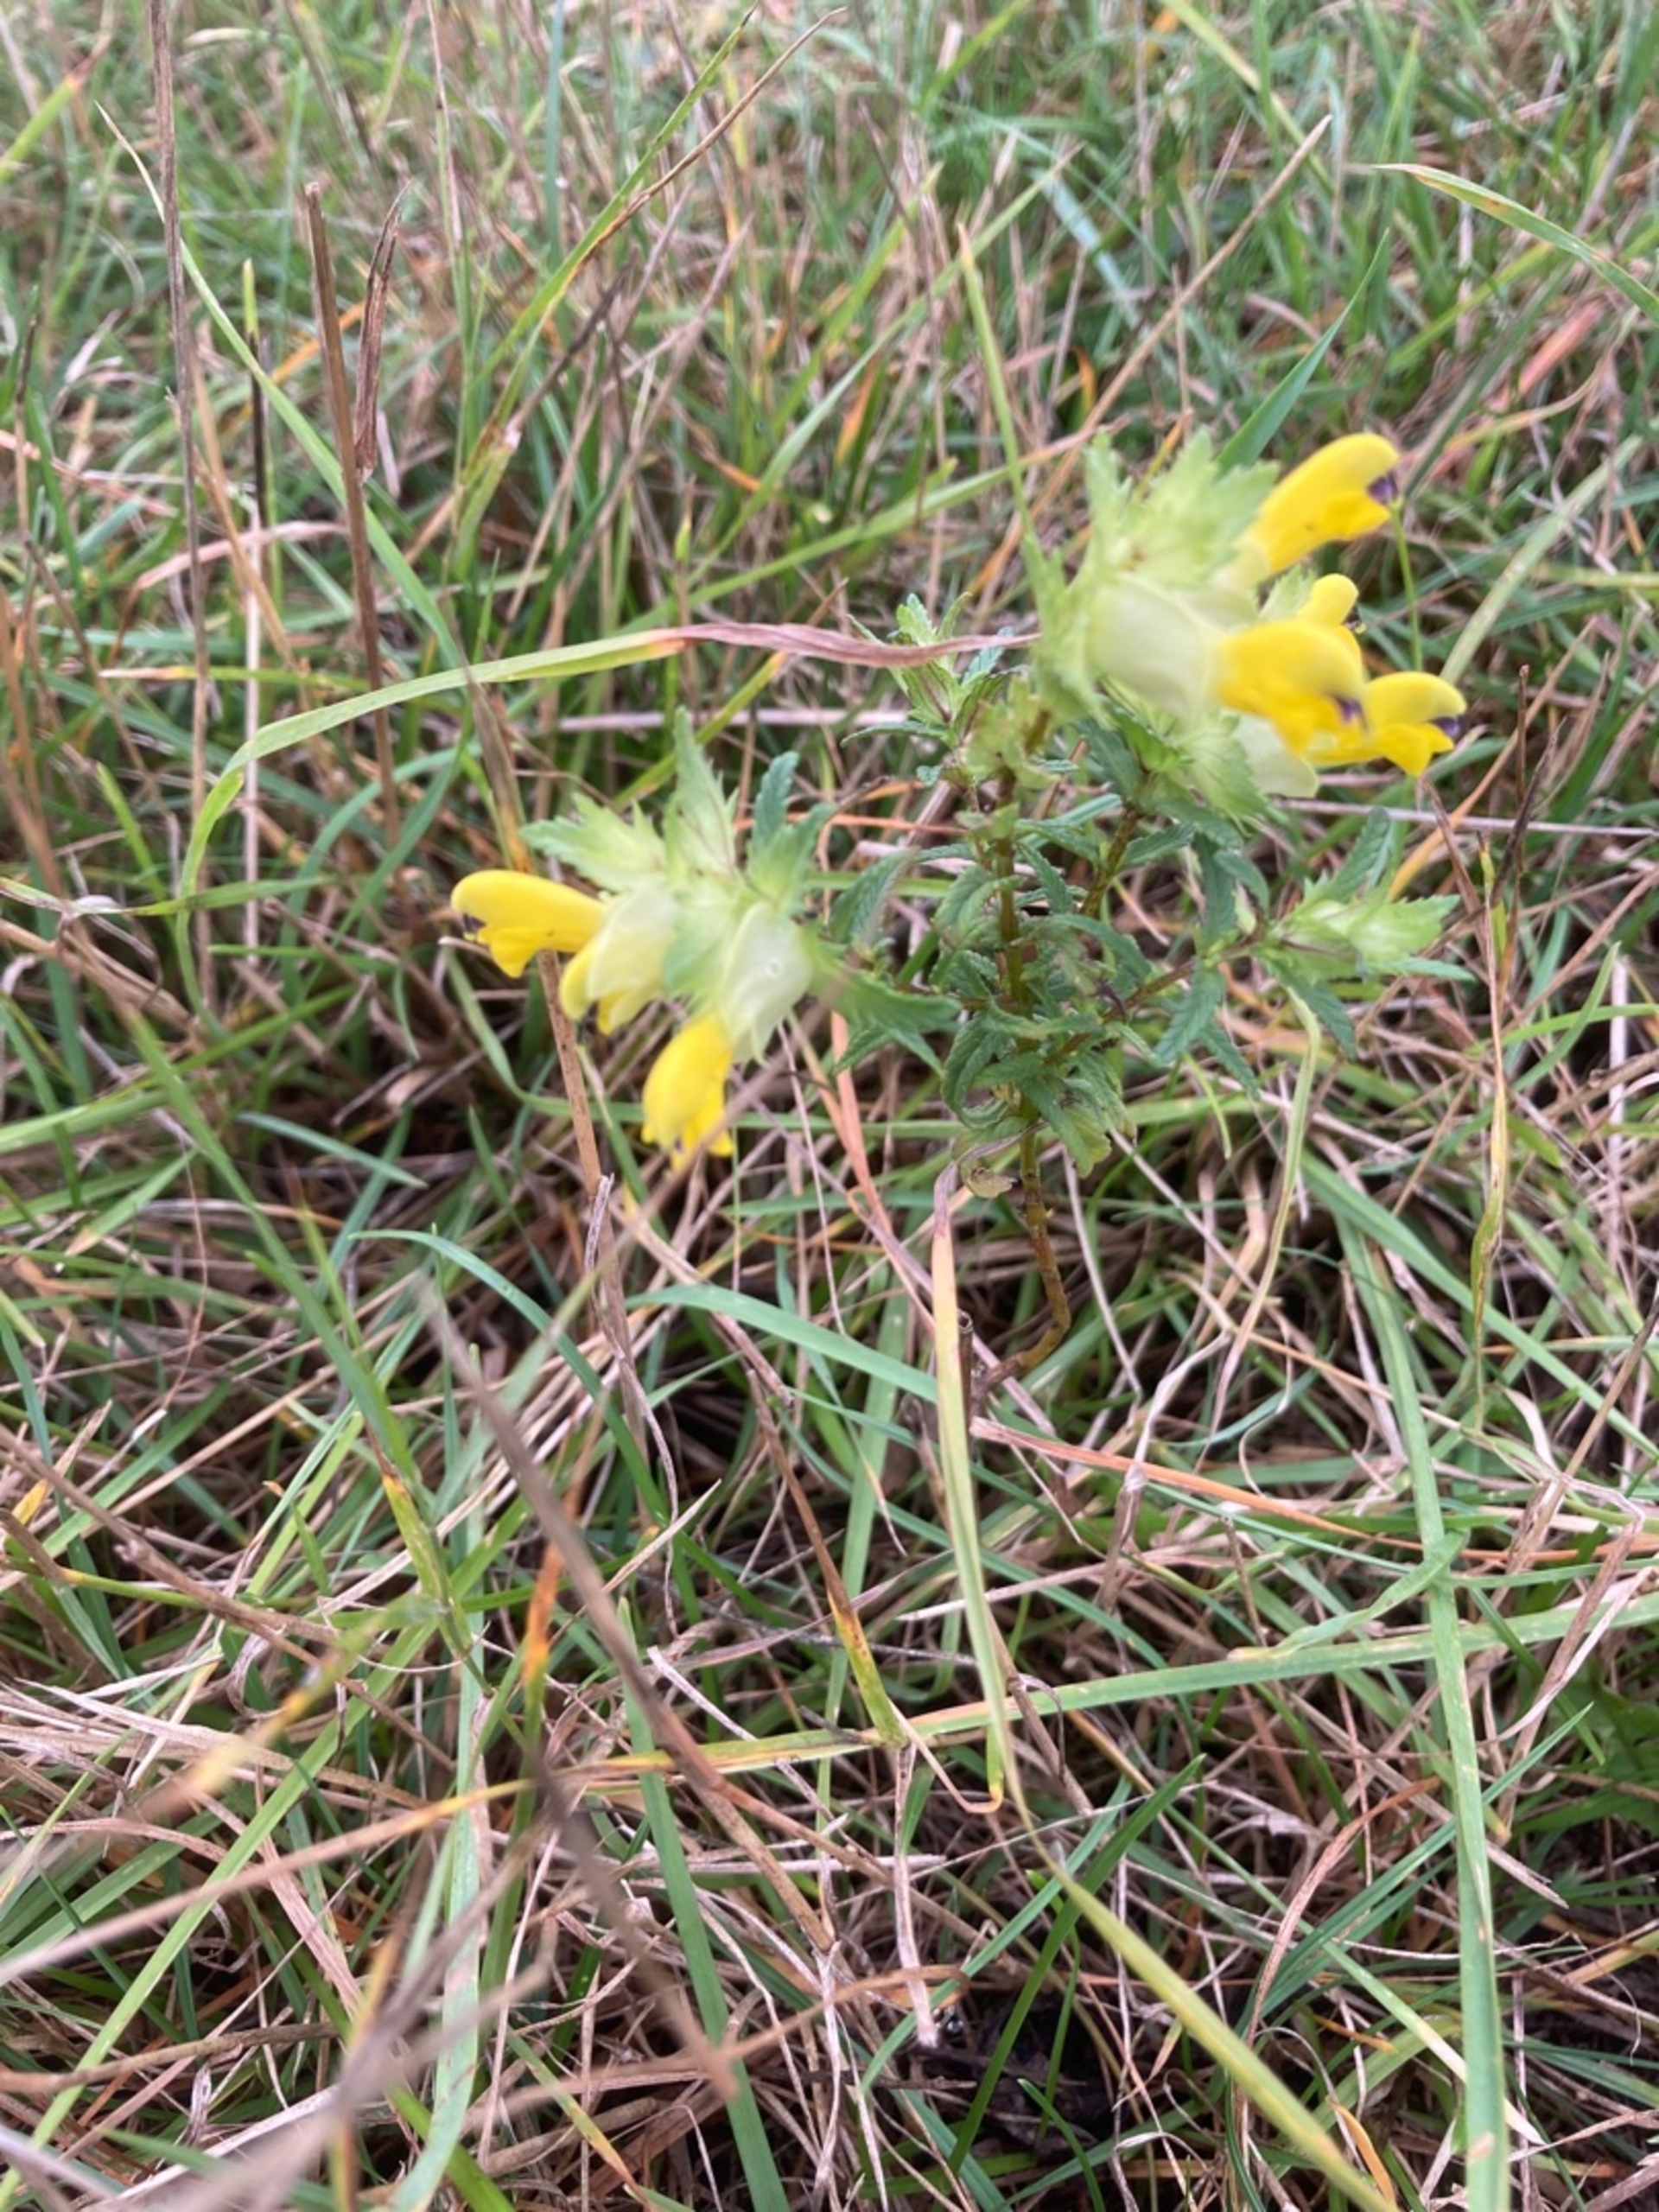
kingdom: Plantae
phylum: Tracheophyta
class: Magnoliopsida
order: Lamiales
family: Orobanchaceae
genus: Rhinanthus
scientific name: Rhinanthus
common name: Stor skjaller
